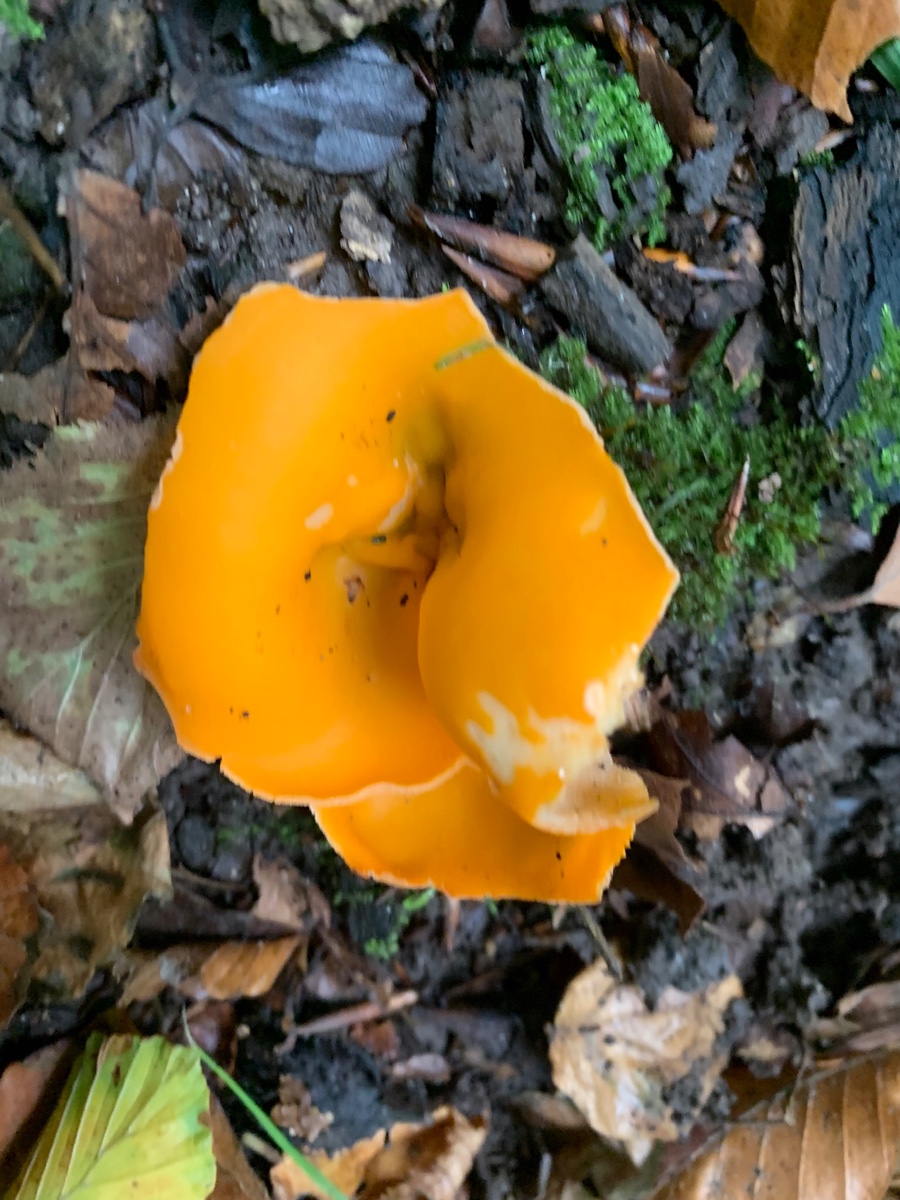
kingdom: Fungi
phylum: Ascomycota
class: Pezizomycetes
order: Pezizales
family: Pyronemataceae
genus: Aleuria
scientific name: Aleuria aurantia
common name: almindelig orangebæger
